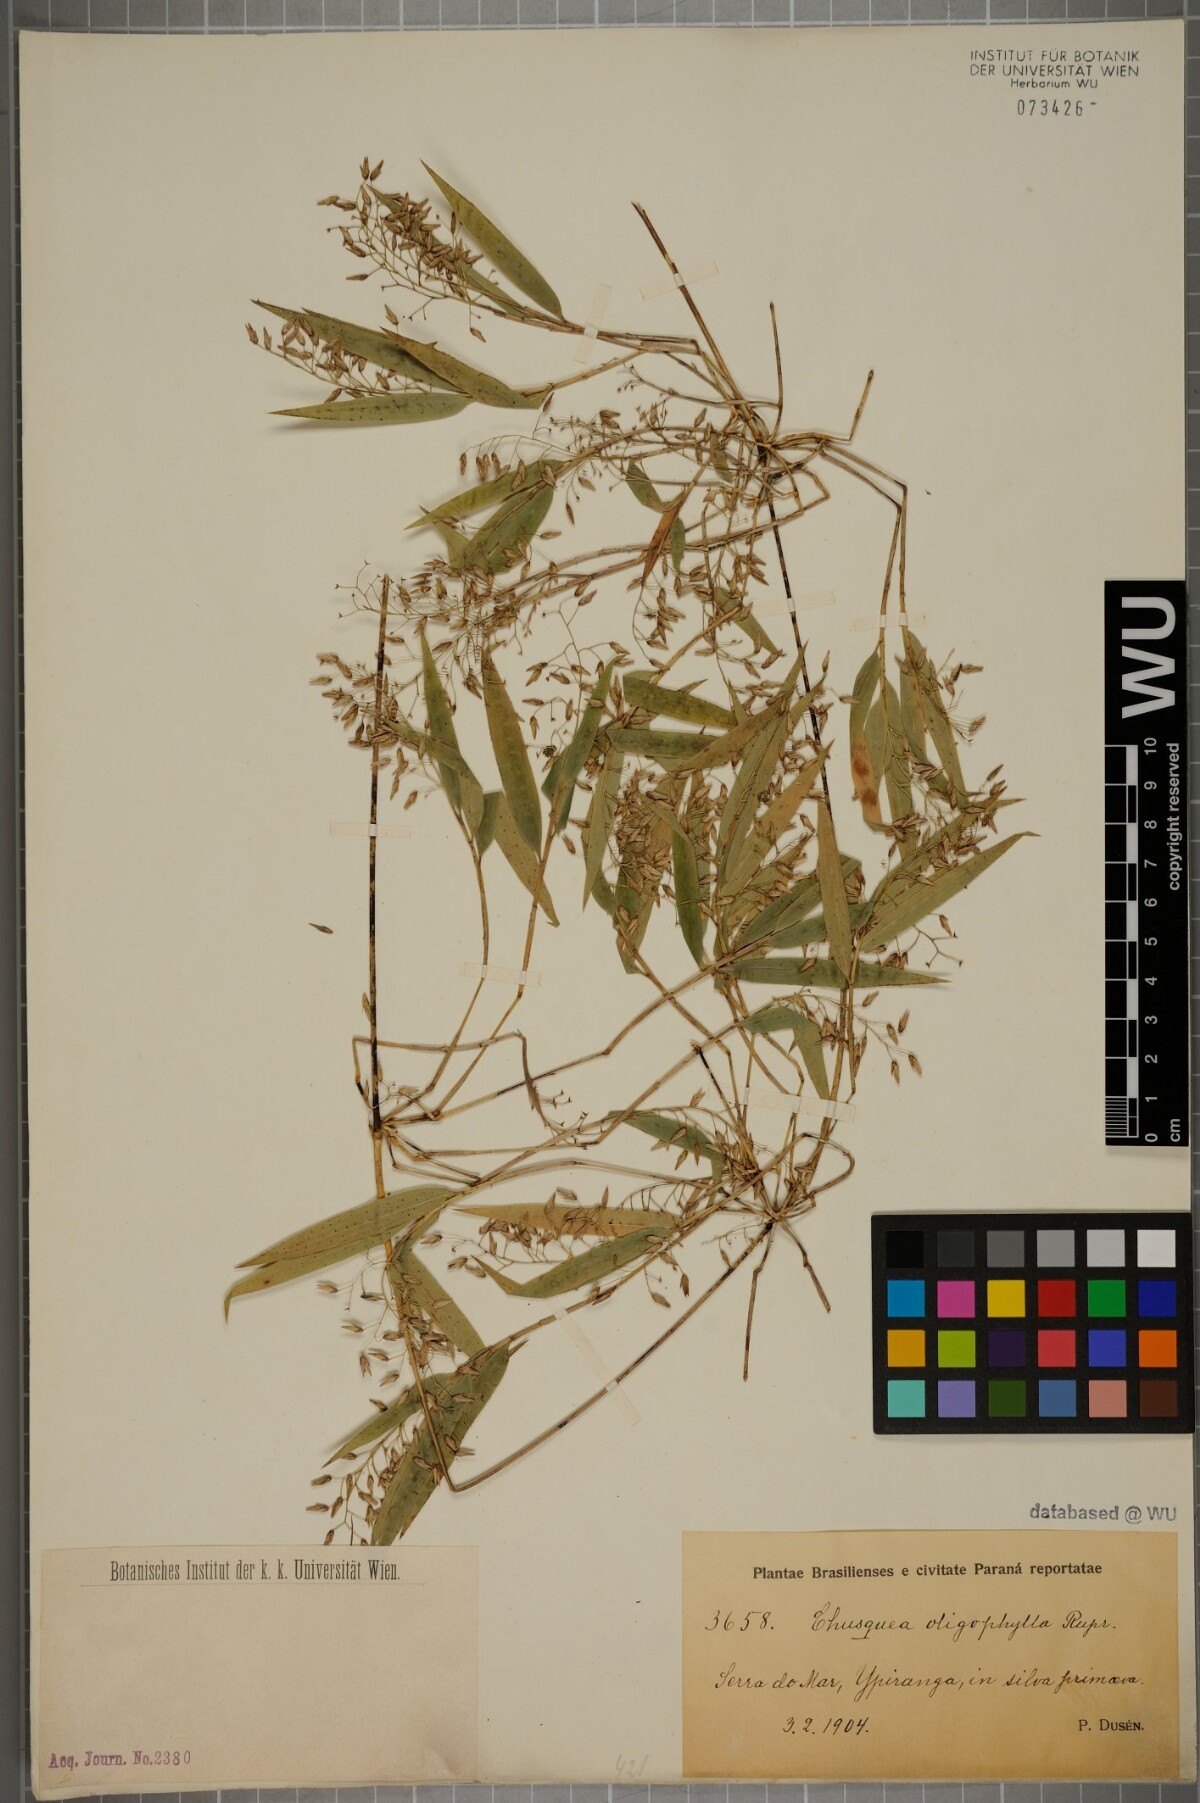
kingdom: Plantae
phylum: Tracheophyta
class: Liliopsida
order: Poales
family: Poaceae
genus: Chusquea
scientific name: Chusquea oligophylla
